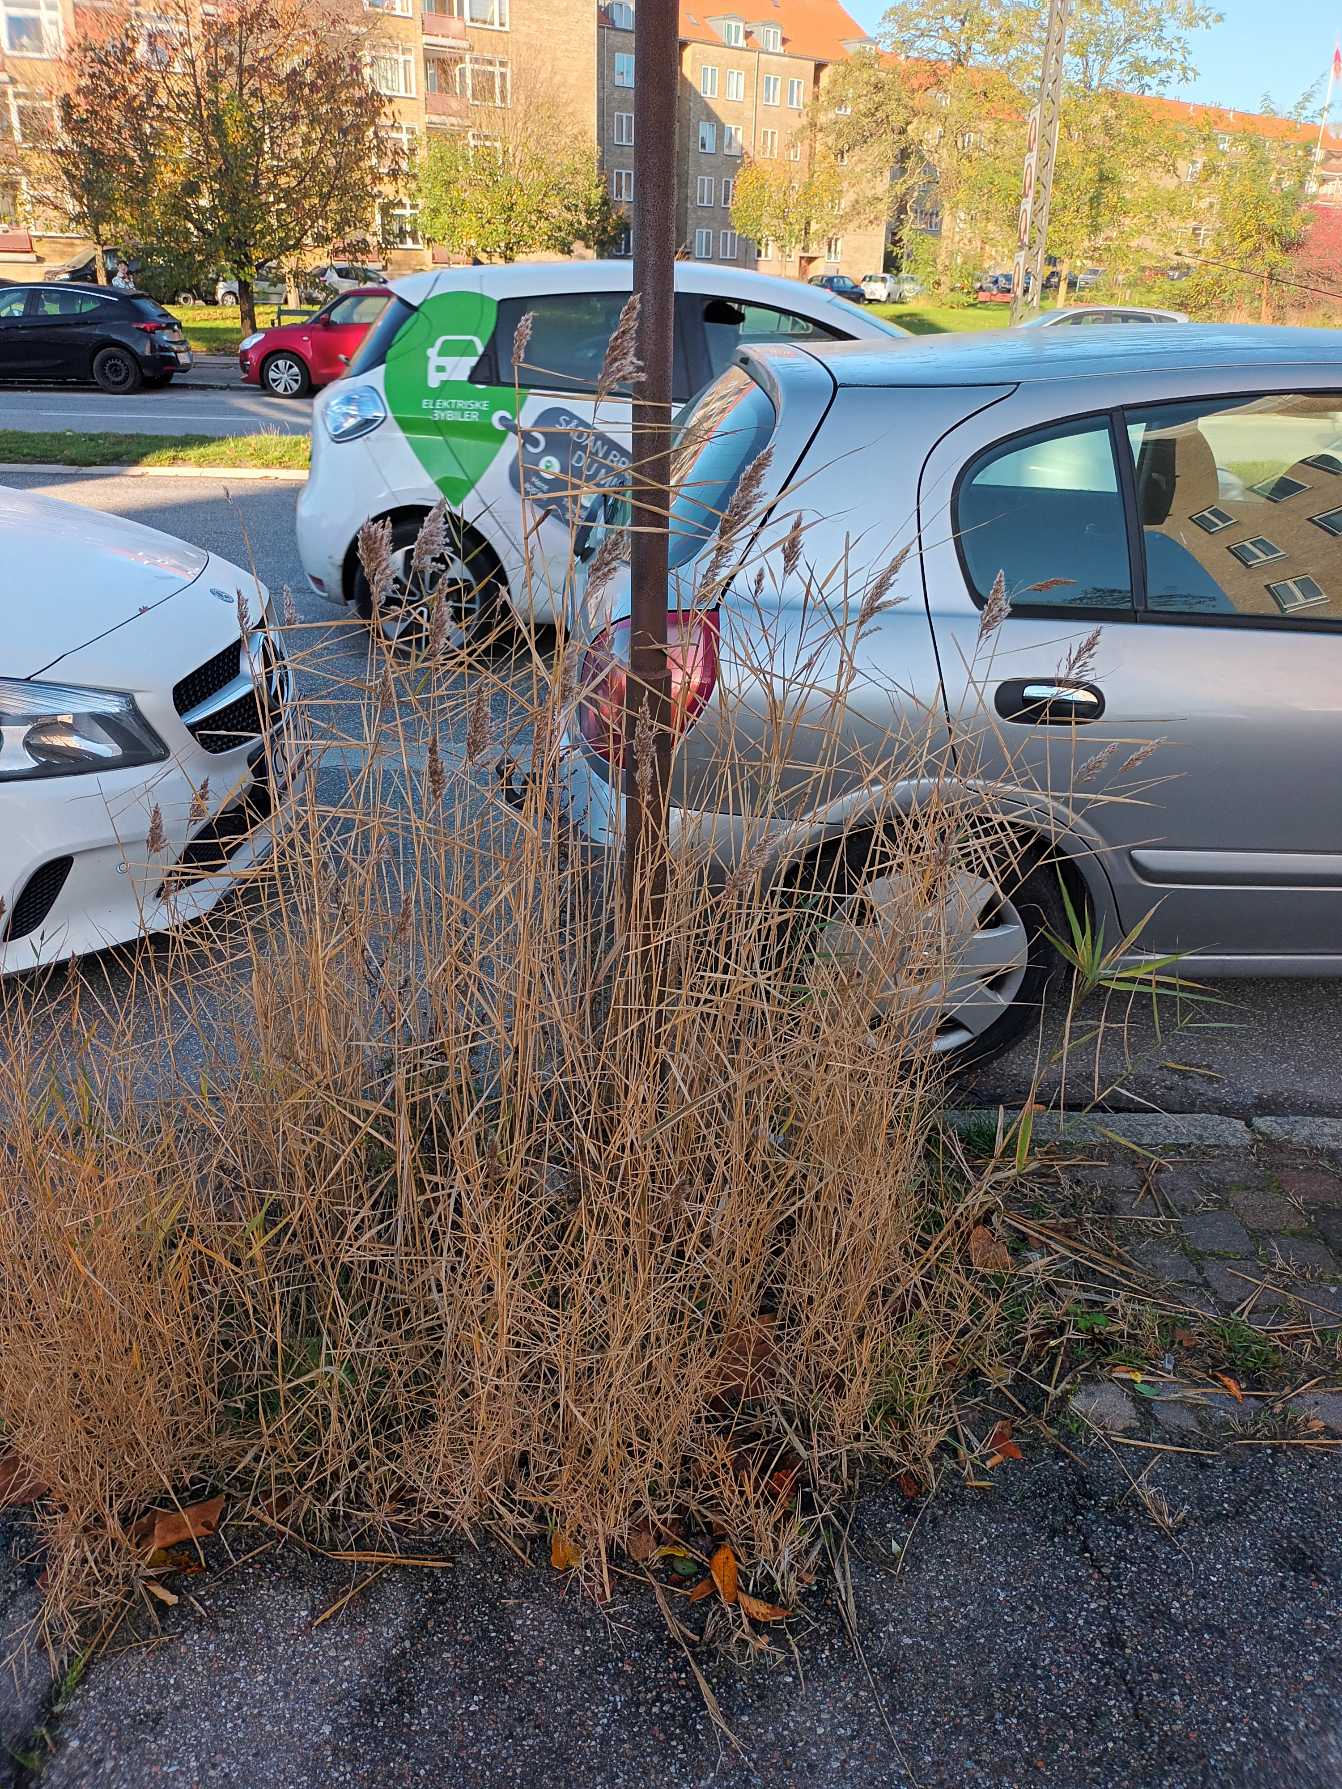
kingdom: Plantae
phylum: Tracheophyta
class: Liliopsida
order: Poales
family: Poaceae
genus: Phragmites
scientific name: Phragmites australis
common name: Tagrør
